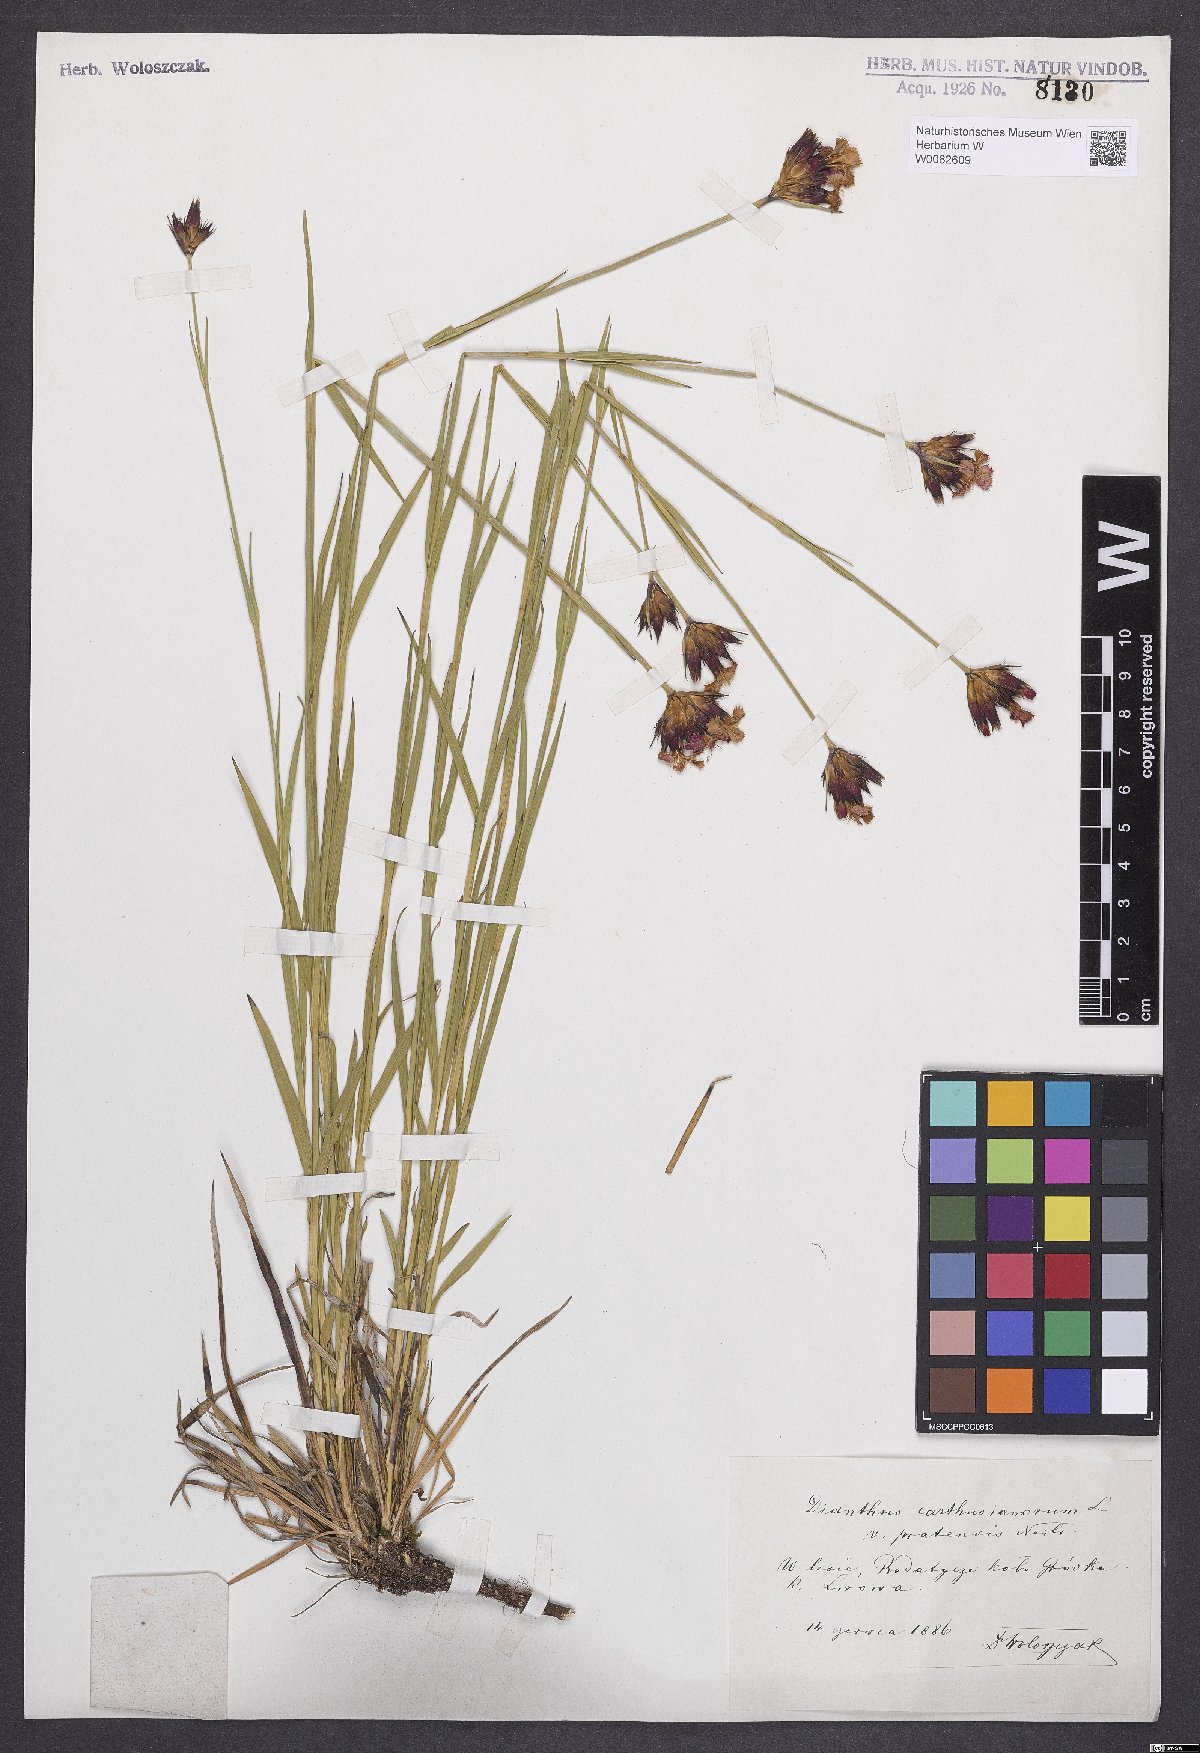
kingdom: Plantae
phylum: Tracheophyta
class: Magnoliopsida
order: Caryophyllales
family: Caryophyllaceae
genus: Dianthus
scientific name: Dianthus carthusianorum
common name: Carthusian pink
